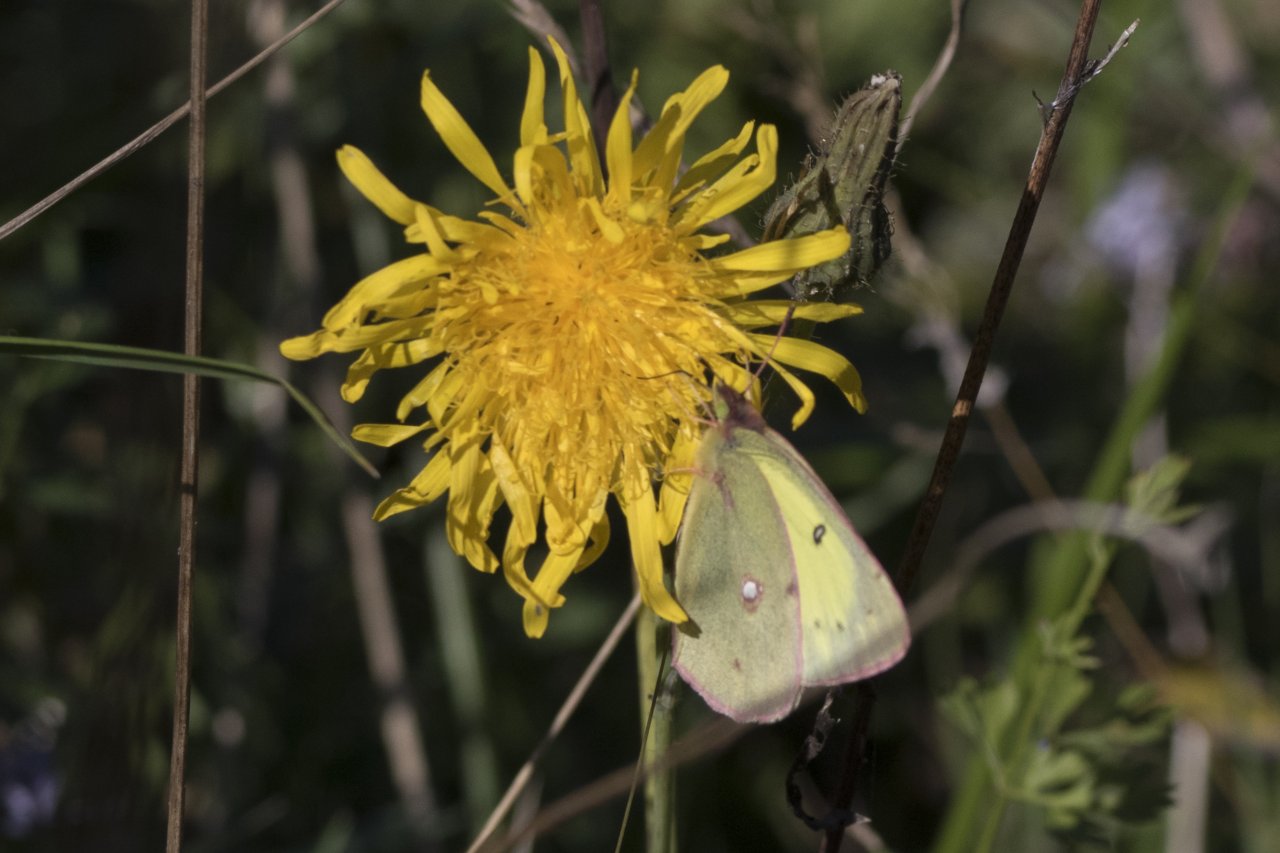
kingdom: Animalia
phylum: Arthropoda
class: Insecta
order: Lepidoptera
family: Pieridae
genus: Colias
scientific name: Colias philodice
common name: Clouded Sulphur
